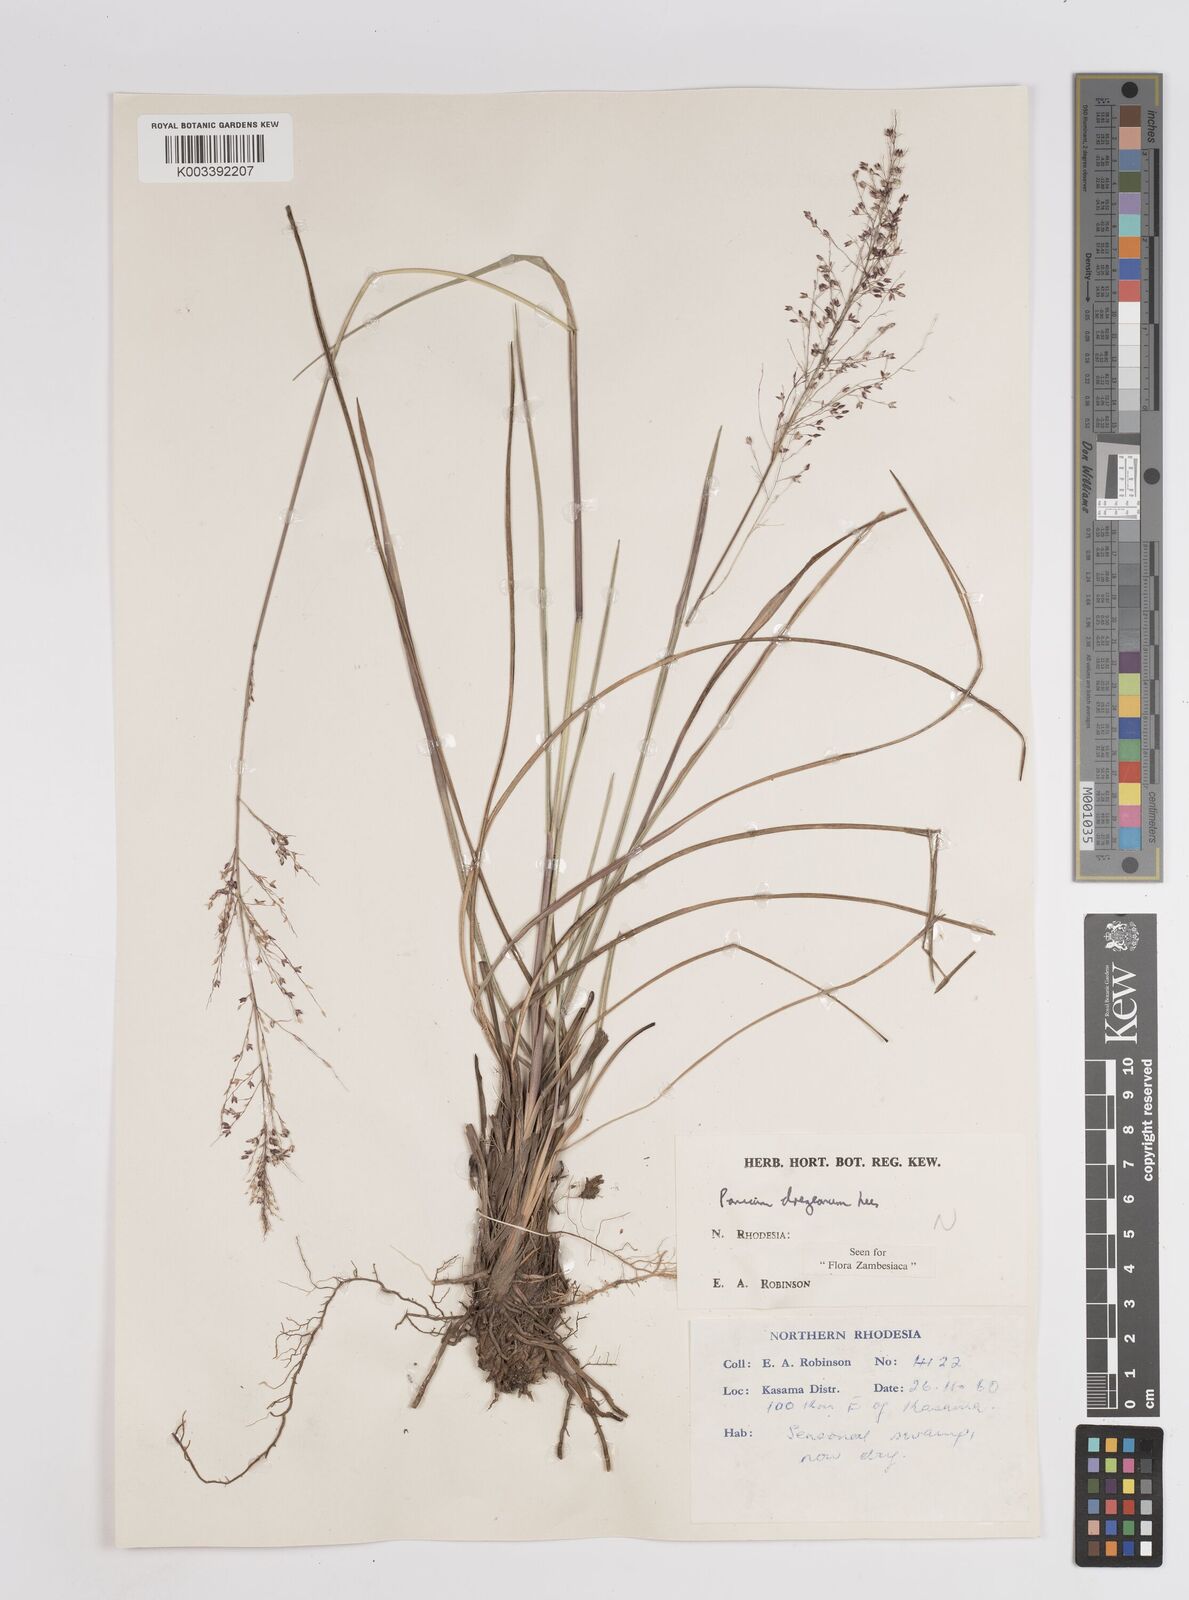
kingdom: Plantae
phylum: Tracheophyta
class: Liliopsida
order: Poales
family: Poaceae
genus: Panicum
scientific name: Panicum dregeanum
